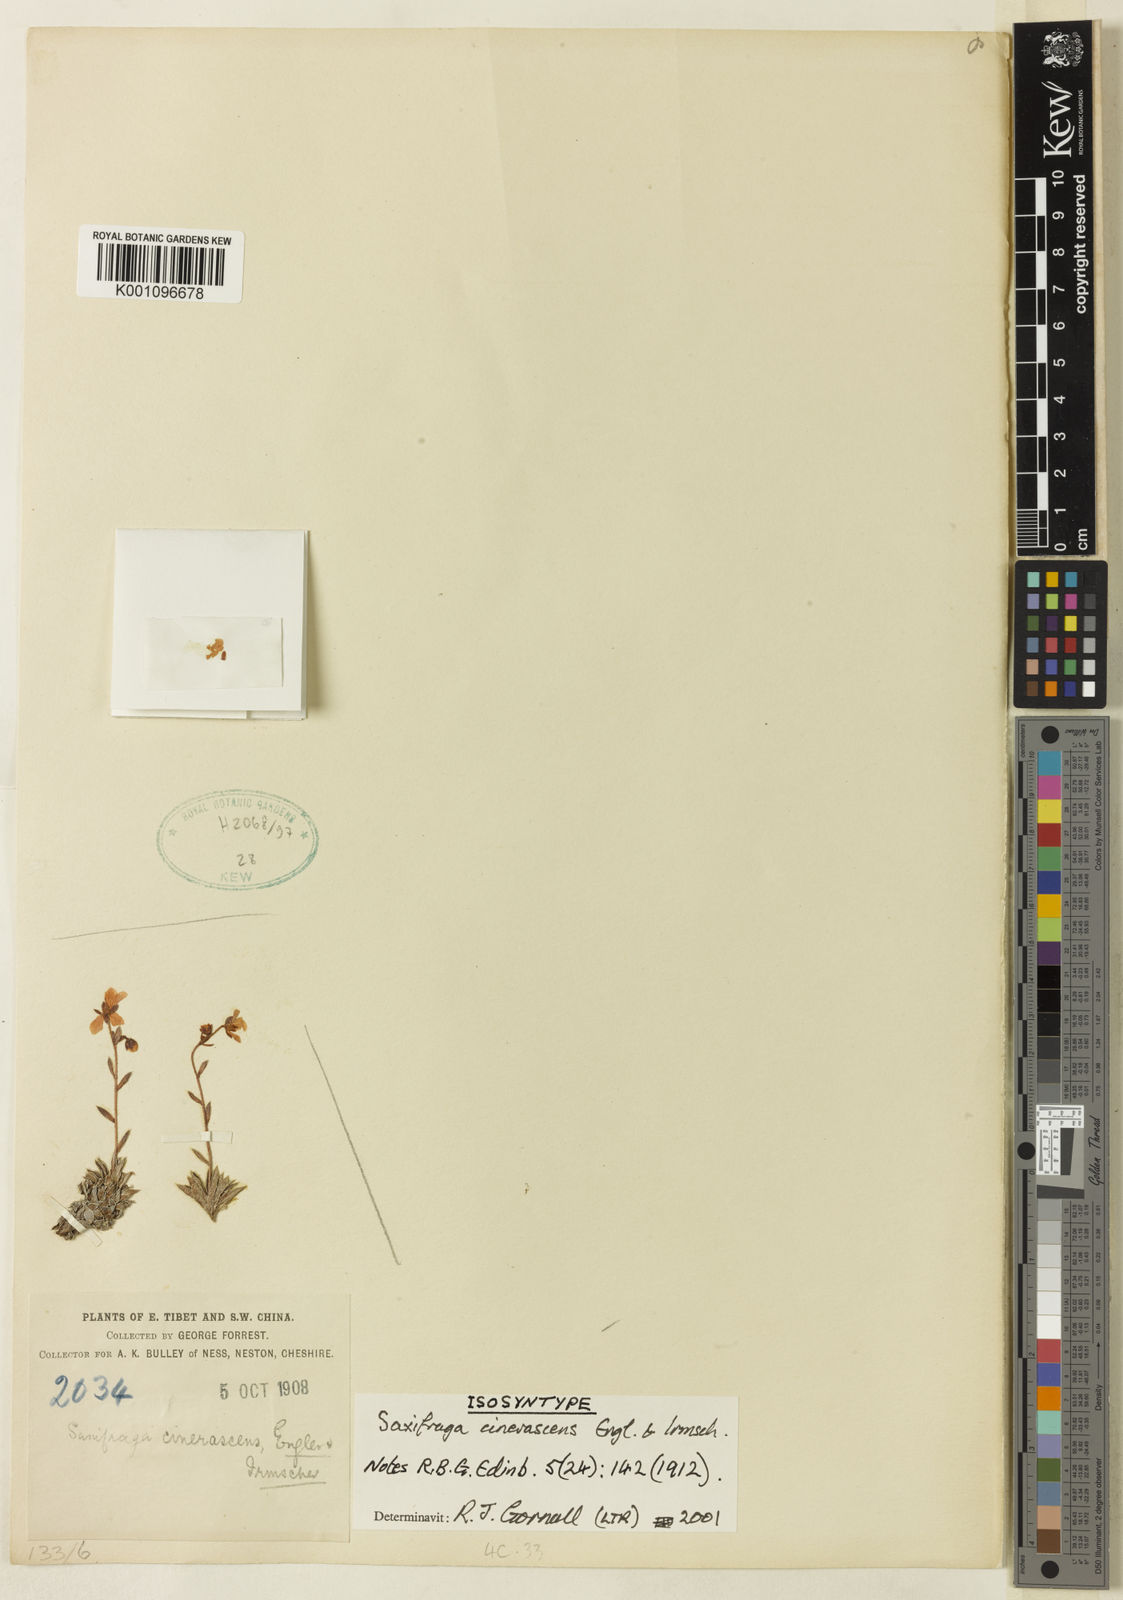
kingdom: Plantae
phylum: Tracheophyta
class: Magnoliopsida
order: Saxifragales
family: Saxifragaceae
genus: Saxifraga
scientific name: Saxifraga cinerascens
